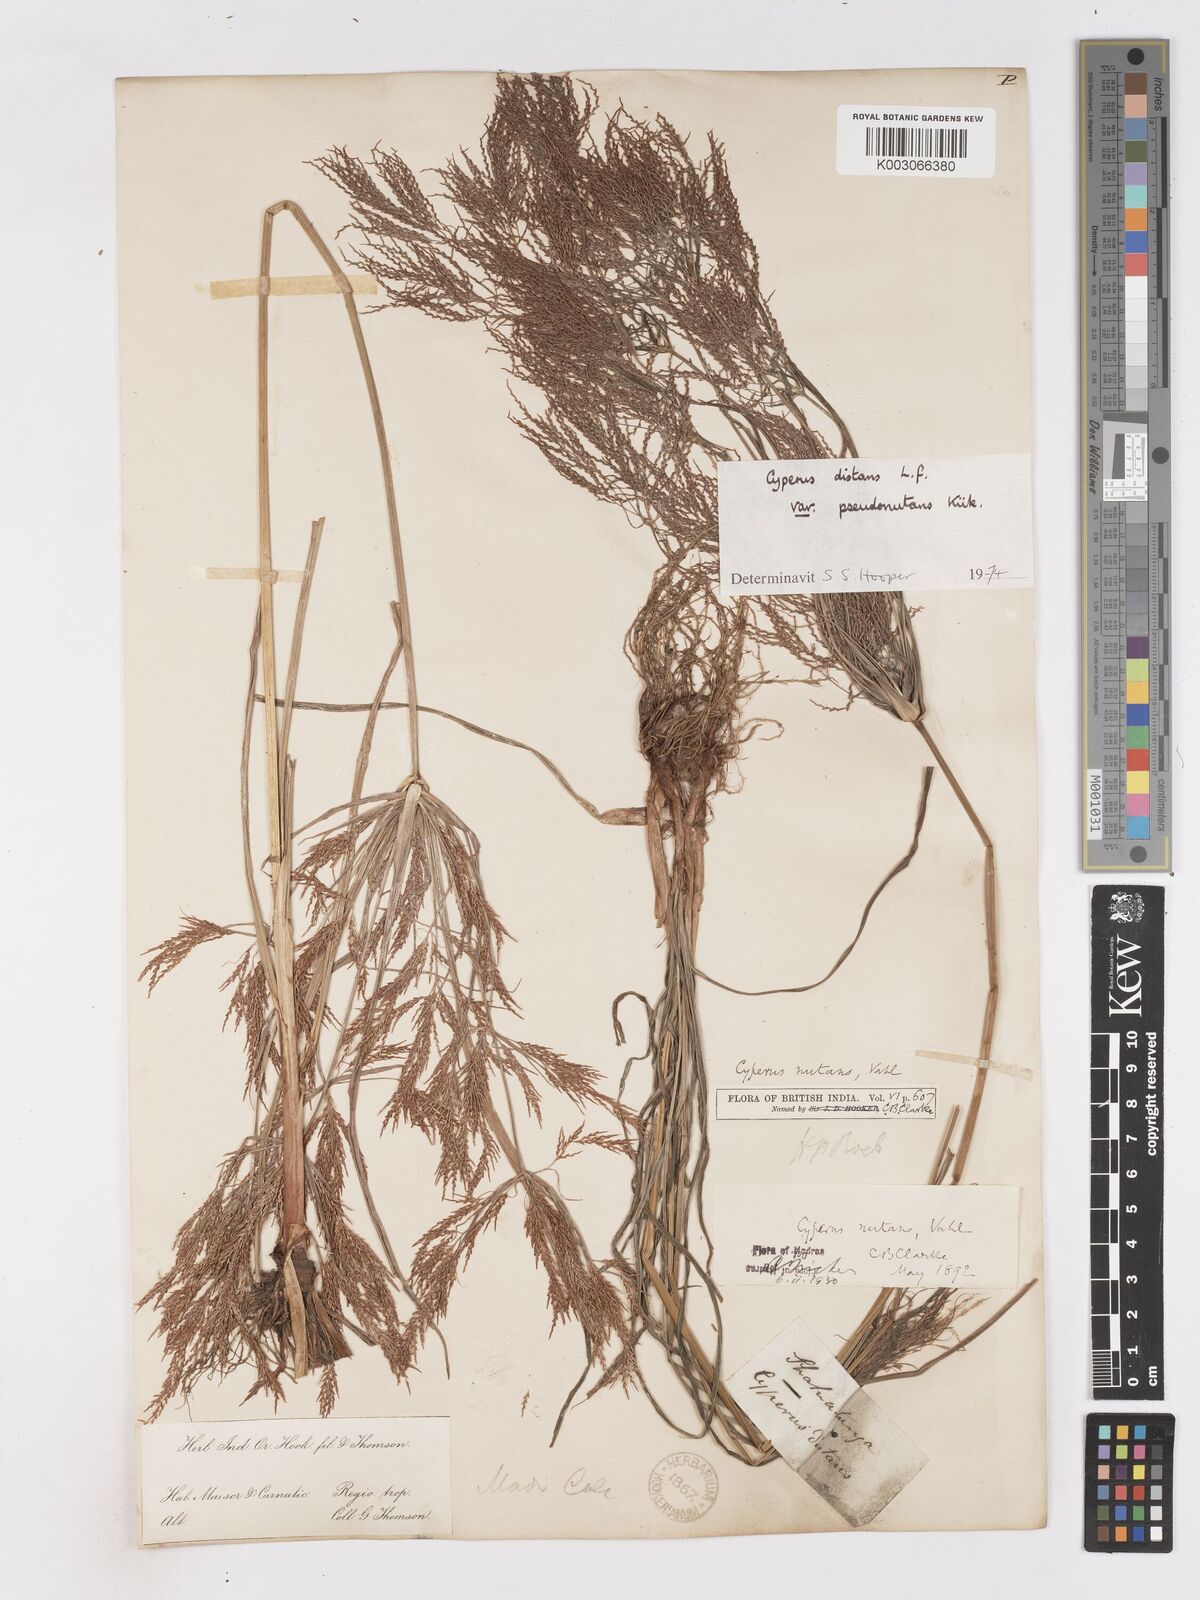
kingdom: Plantae
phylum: Tracheophyta
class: Liliopsida
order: Poales
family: Cyperaceae
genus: Cyperus
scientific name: Cyperus distans
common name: Slender cyperus
